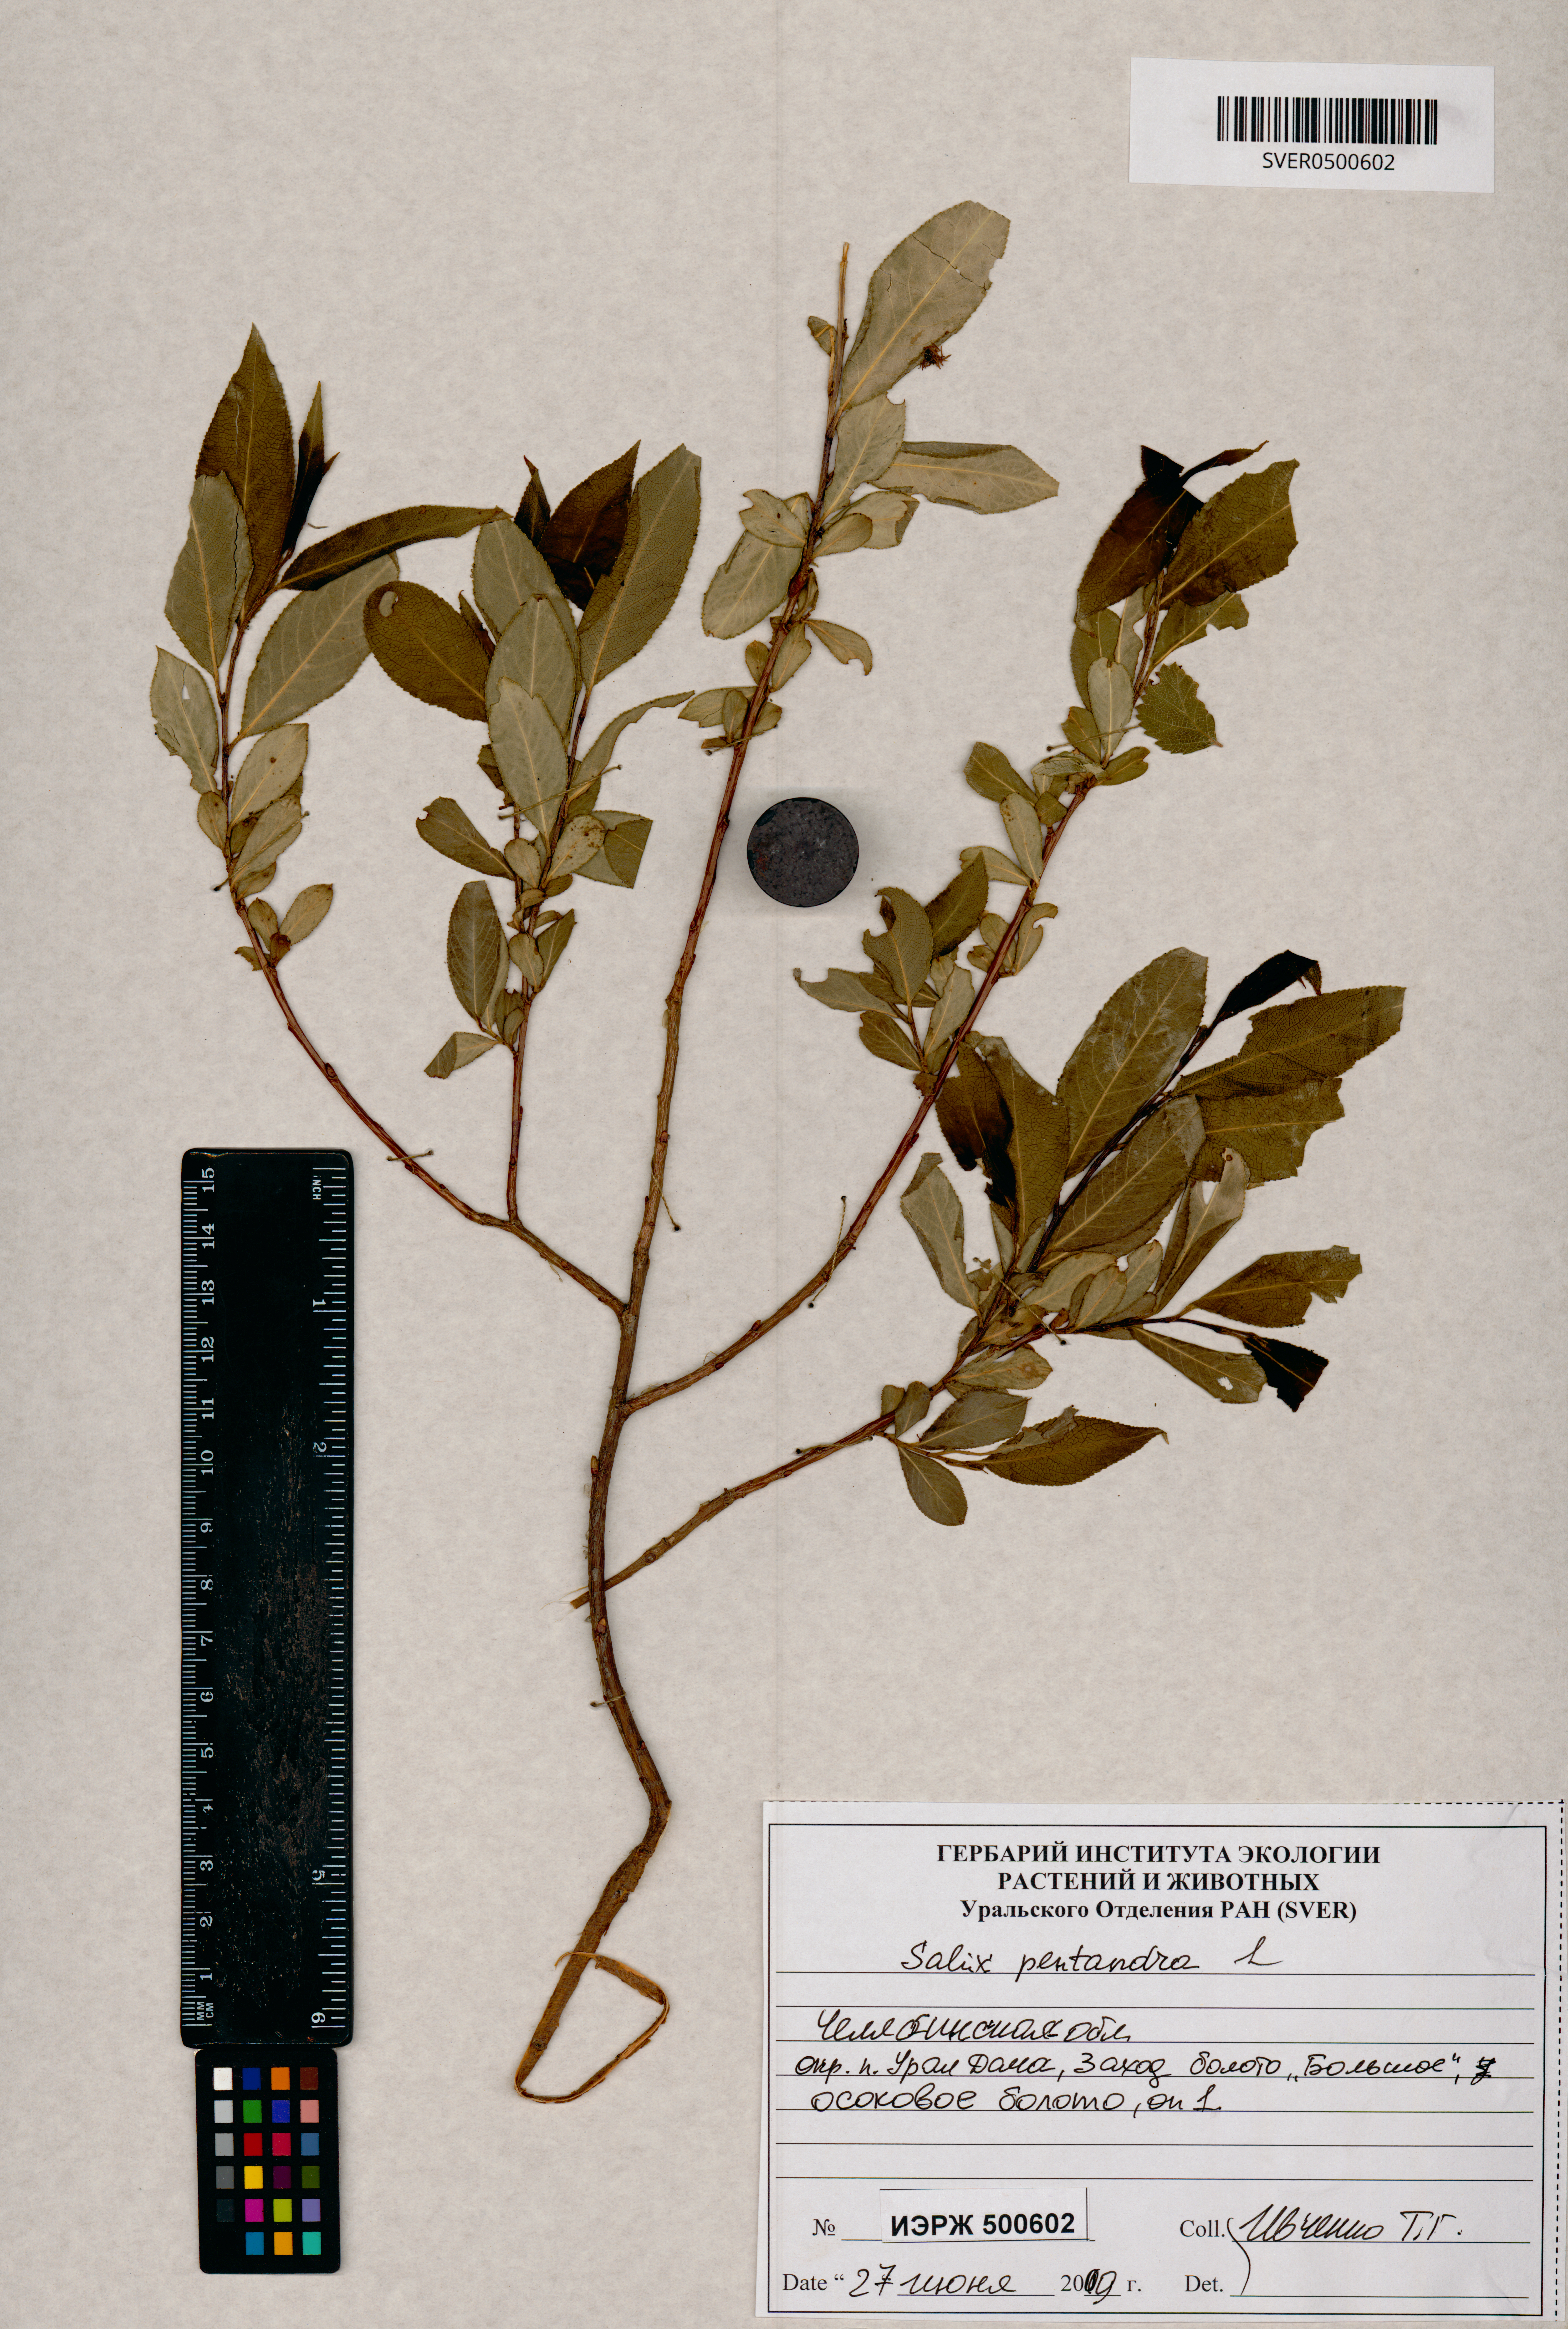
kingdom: Plantae
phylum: Tracheophyta
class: Magnoliopsida
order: Malpighiales
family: Salicaceae
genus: Salix
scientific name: Salix pentandra
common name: Bay willow
